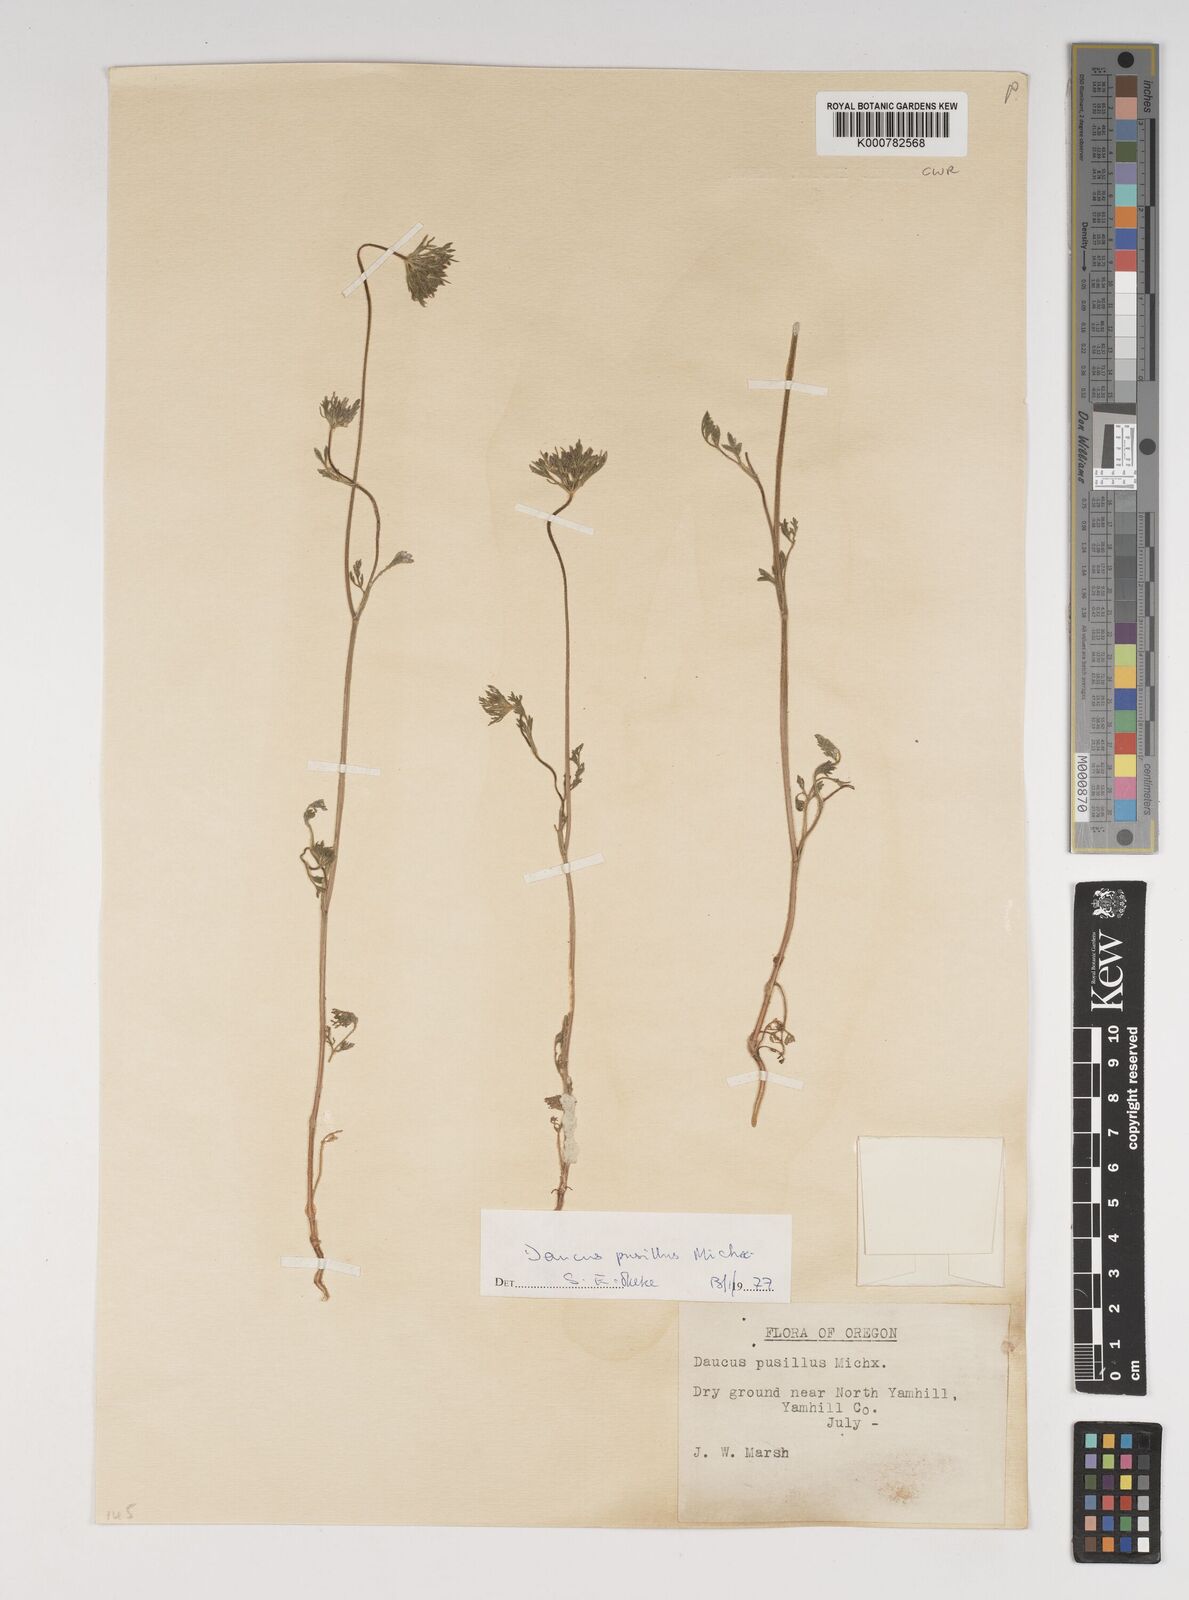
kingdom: Plantae
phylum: Tracheophyta
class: Magnoliopsida
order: Apiales
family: Apiaceae
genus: Daucus
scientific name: Daucus pusillus
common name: Southwest wild carrot
